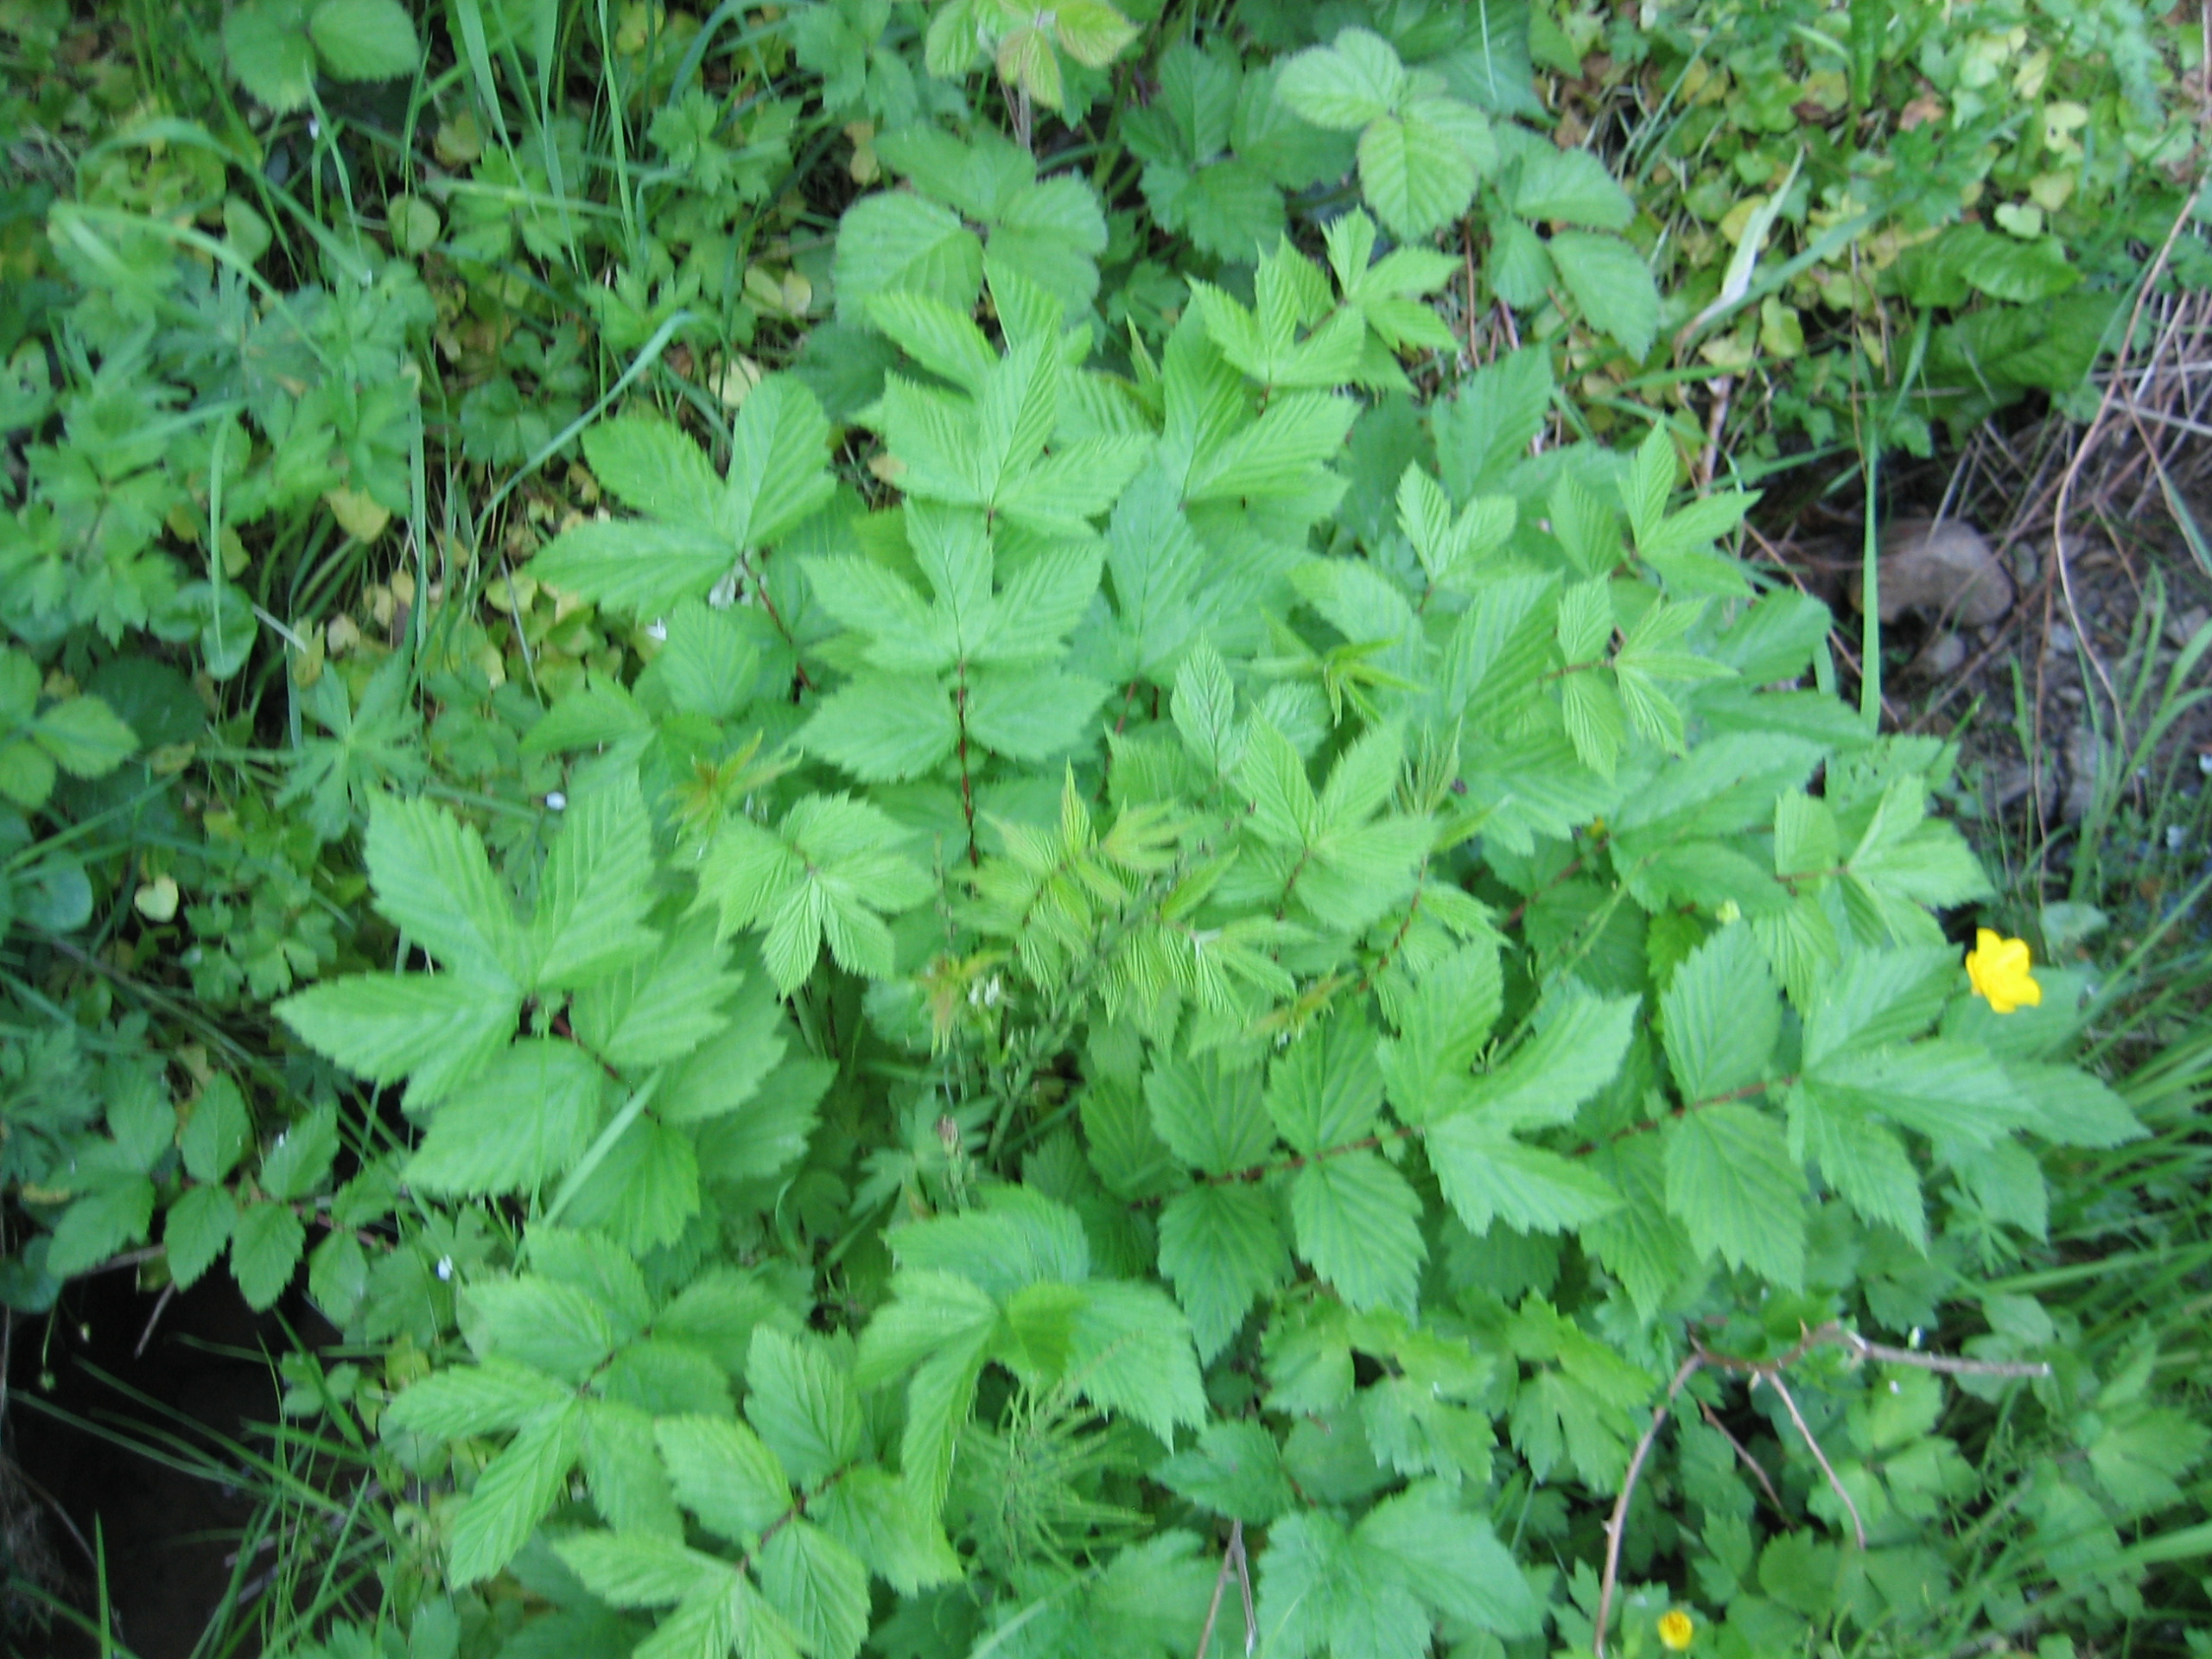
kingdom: Plantae
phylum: Tracheophyta
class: Magnoliopsida
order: Rosales
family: Rosaceae
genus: Filipendula
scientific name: Filipendula ulmaria
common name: Almindelig mjødurt
